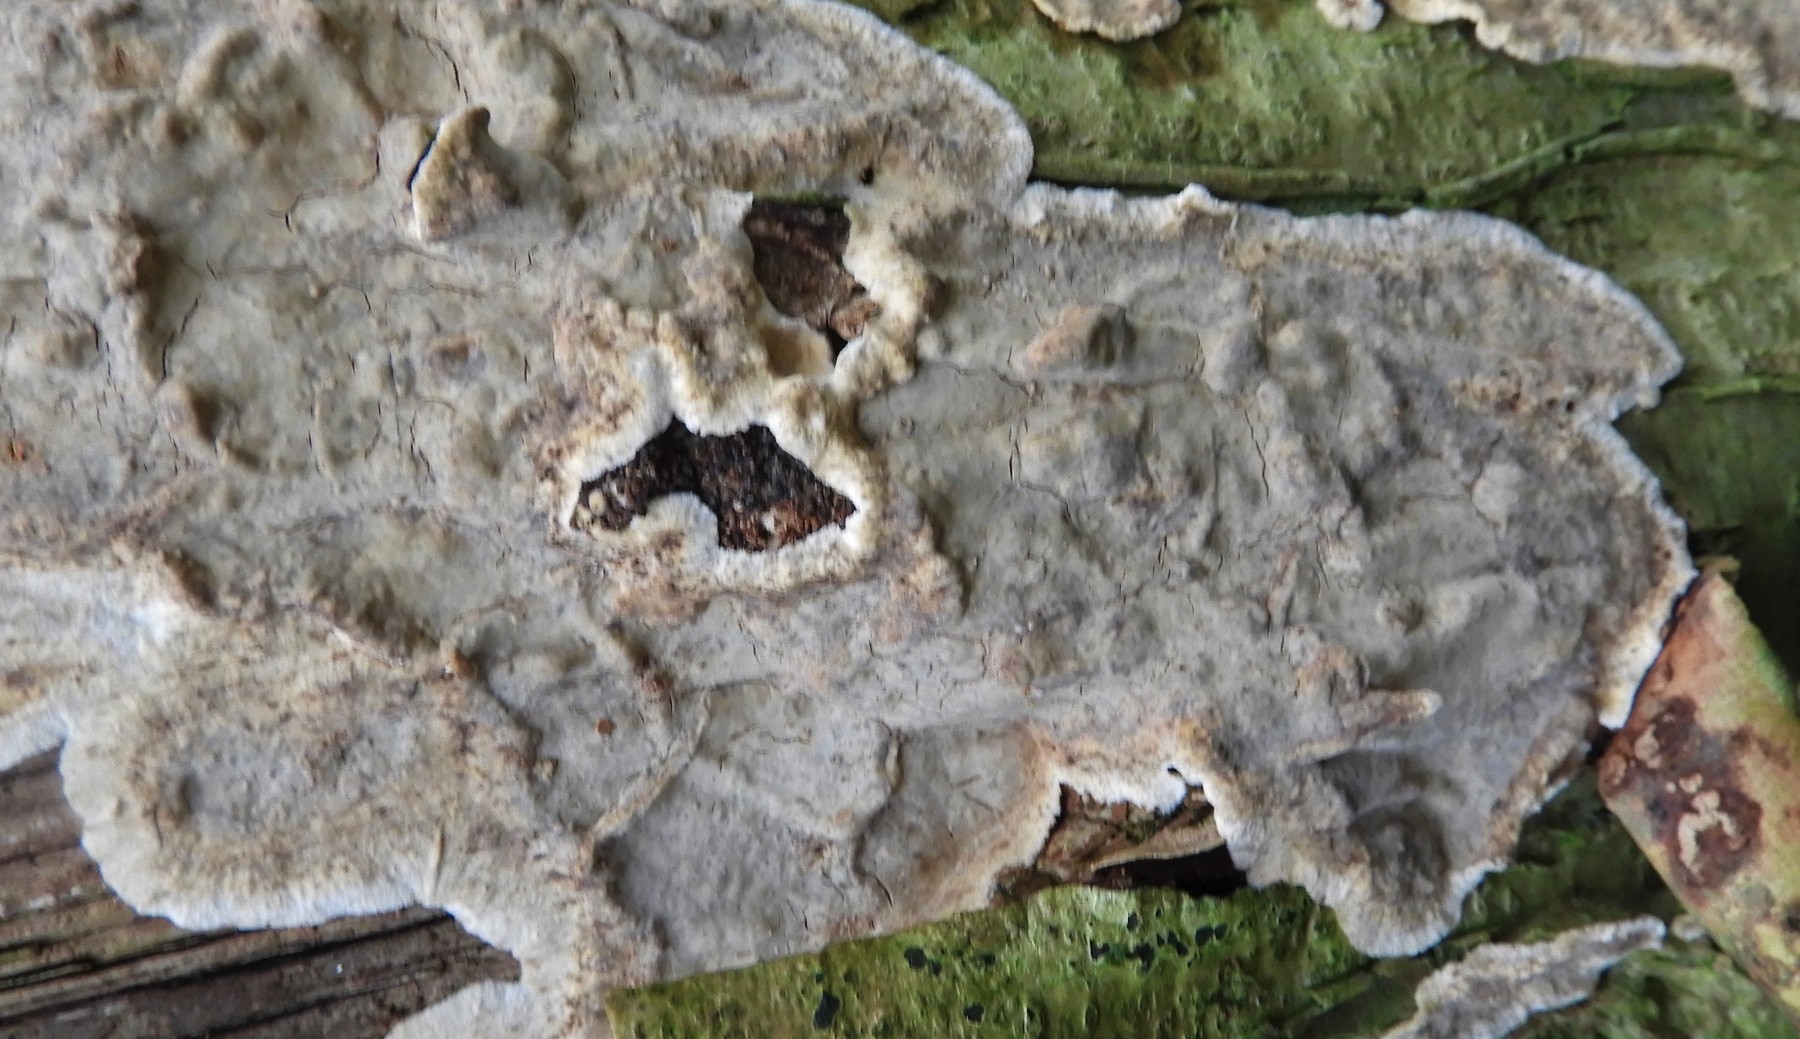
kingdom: Fungi
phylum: Basidiomycota
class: Agaricomycetes
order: Agaricales
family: Physalacriaceae
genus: Cylindrobasidium
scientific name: Cylindrobasidium evolvens
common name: sprækkehinde
